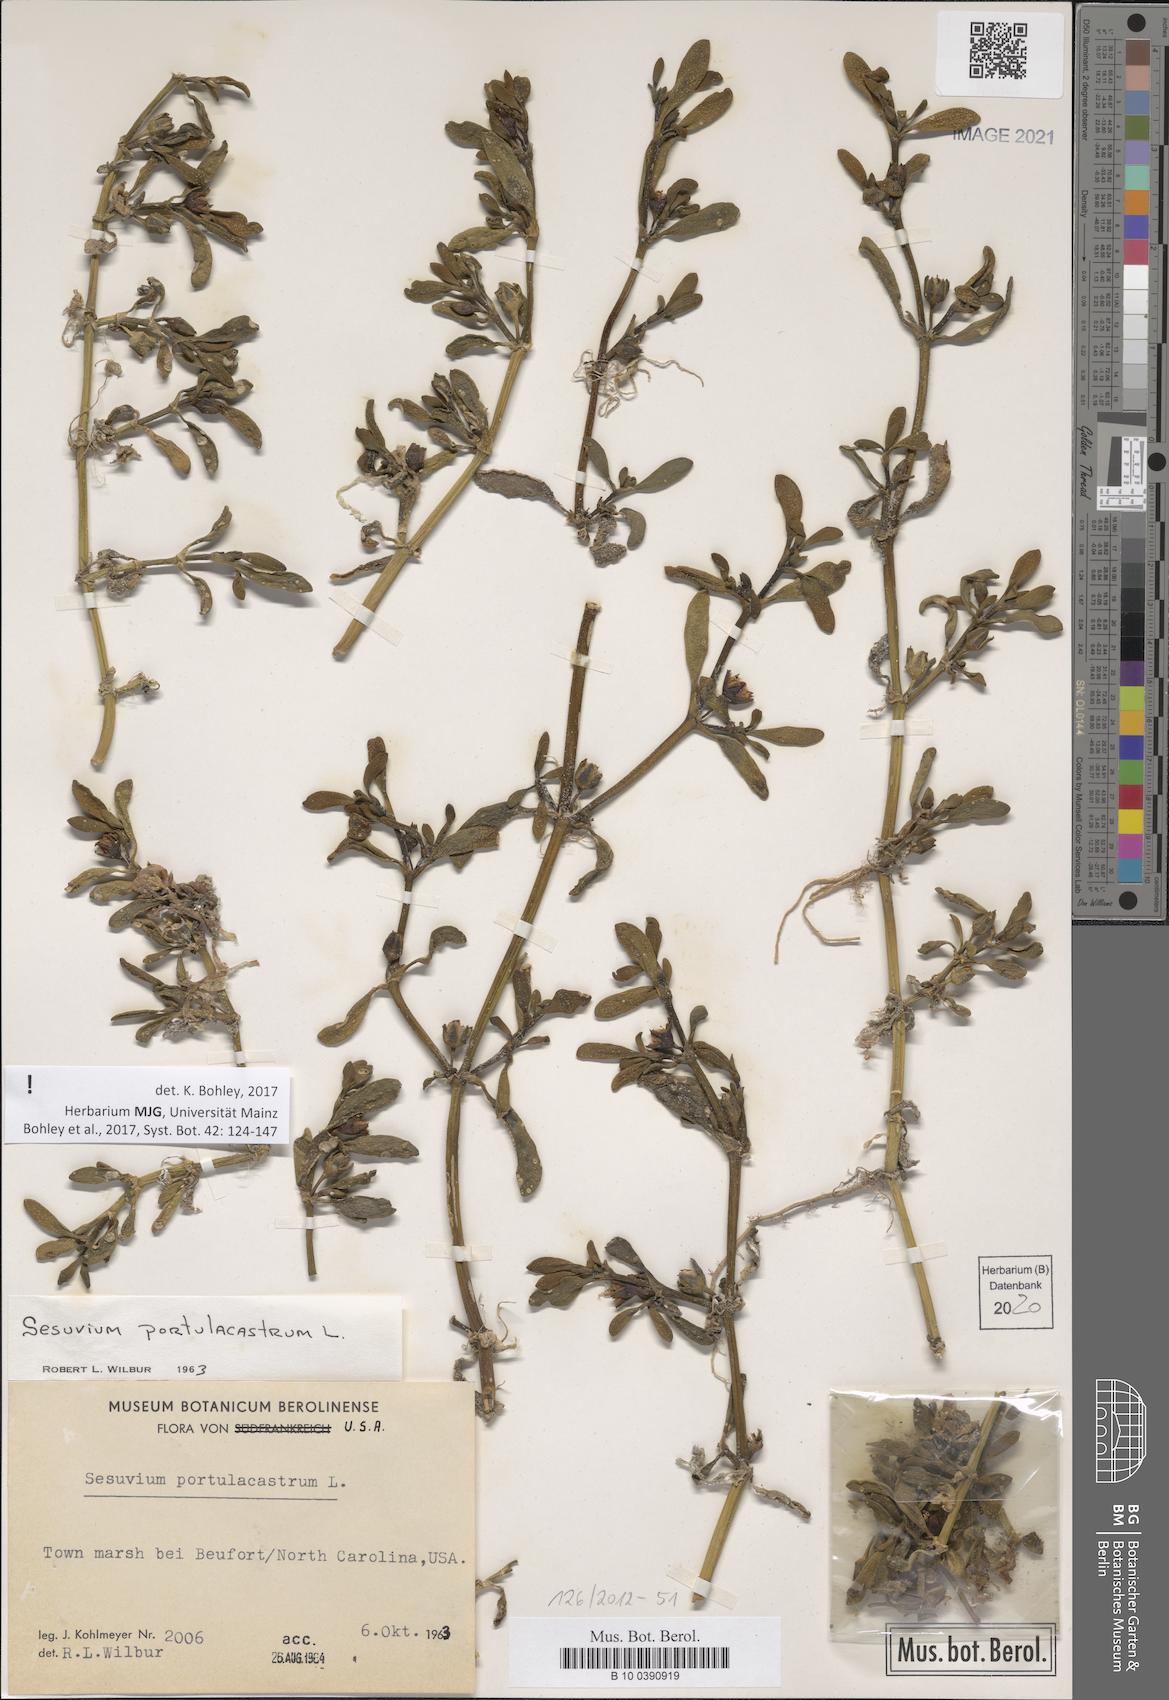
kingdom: Plantae
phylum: Tracheophyta
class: Magnoliopsida
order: Caryophyllales
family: Aizoaceae
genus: Sesuvium
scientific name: Sesuvium portulacastrum
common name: Sea-purslane
